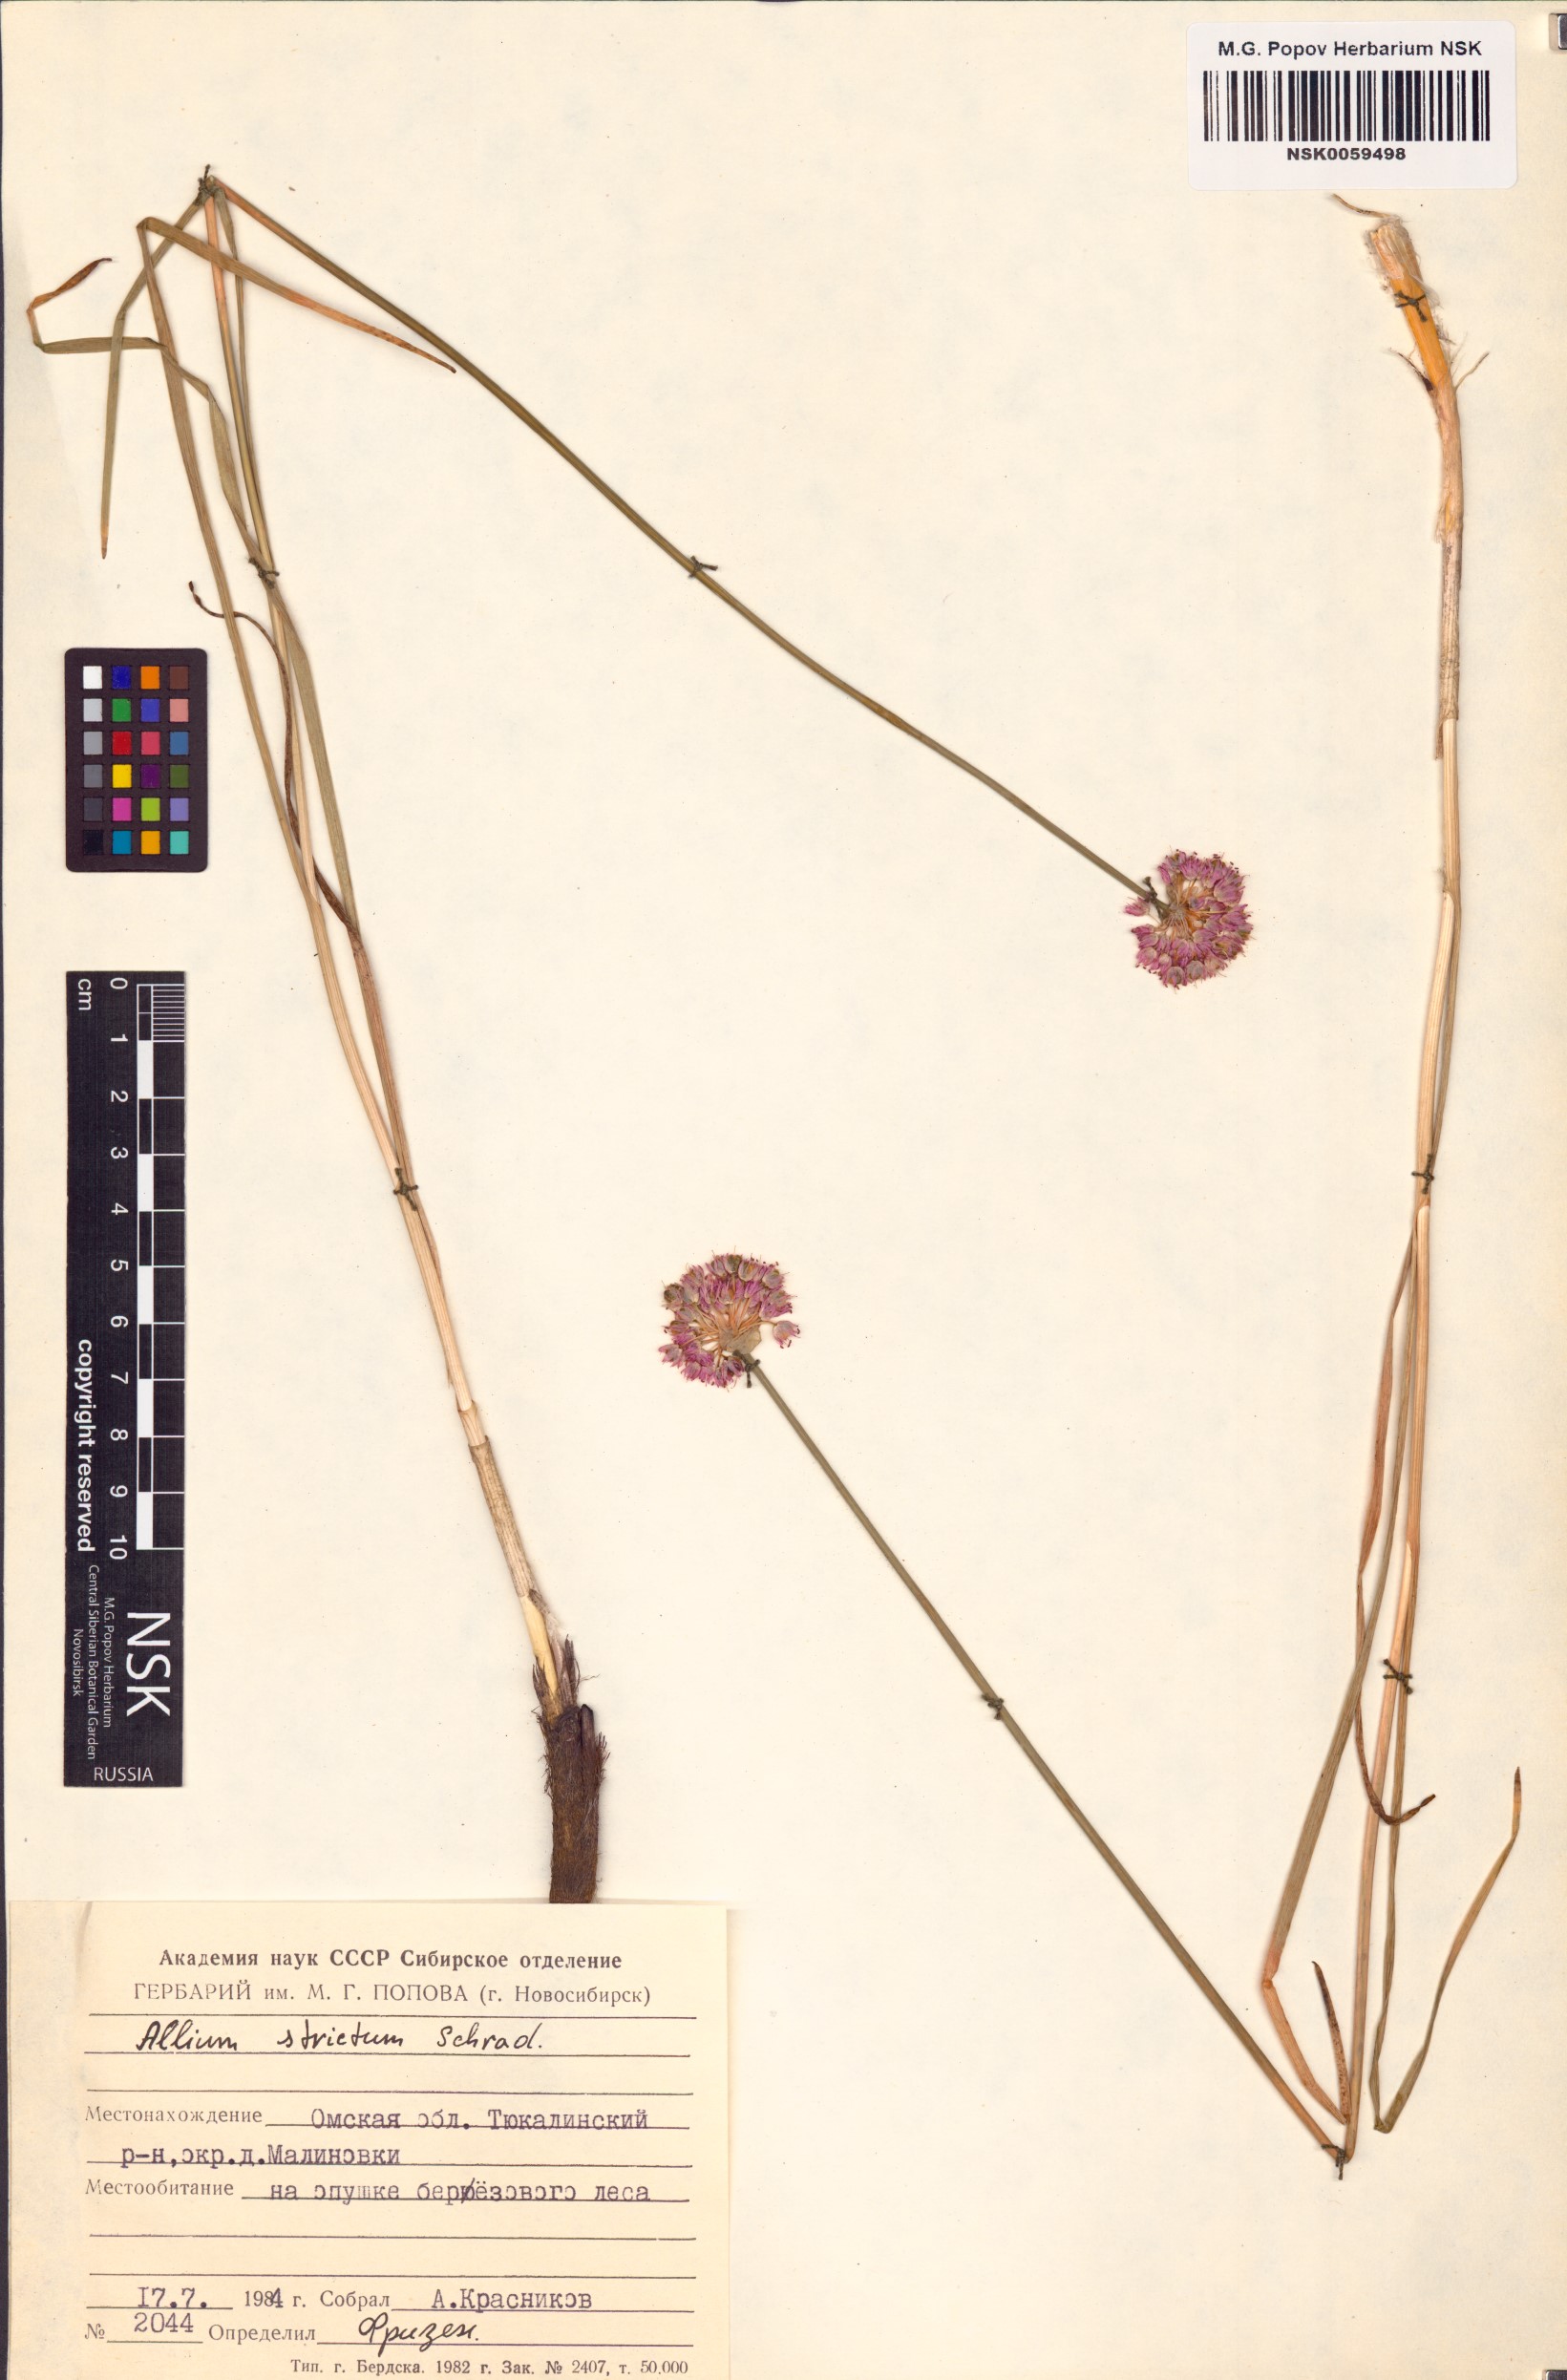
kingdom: Plantae
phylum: Tracheophyta
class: Liliopsida
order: Asparagales
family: Amaryllidaceae
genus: Allium
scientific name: Allium strictum
